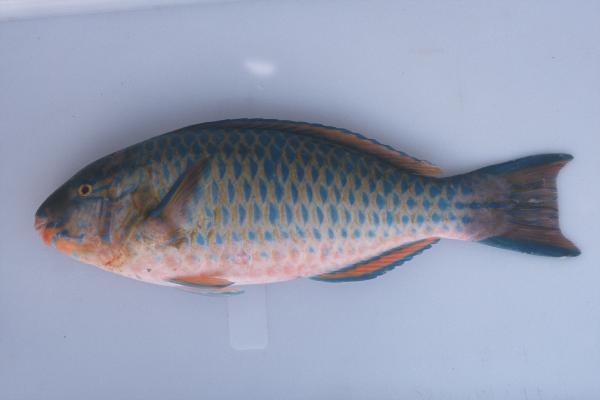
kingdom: Animalia
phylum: Chordata
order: Perciformes
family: Scaridae
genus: Scarus
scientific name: Scarus scaber
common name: Dusky-capped parrotfish
